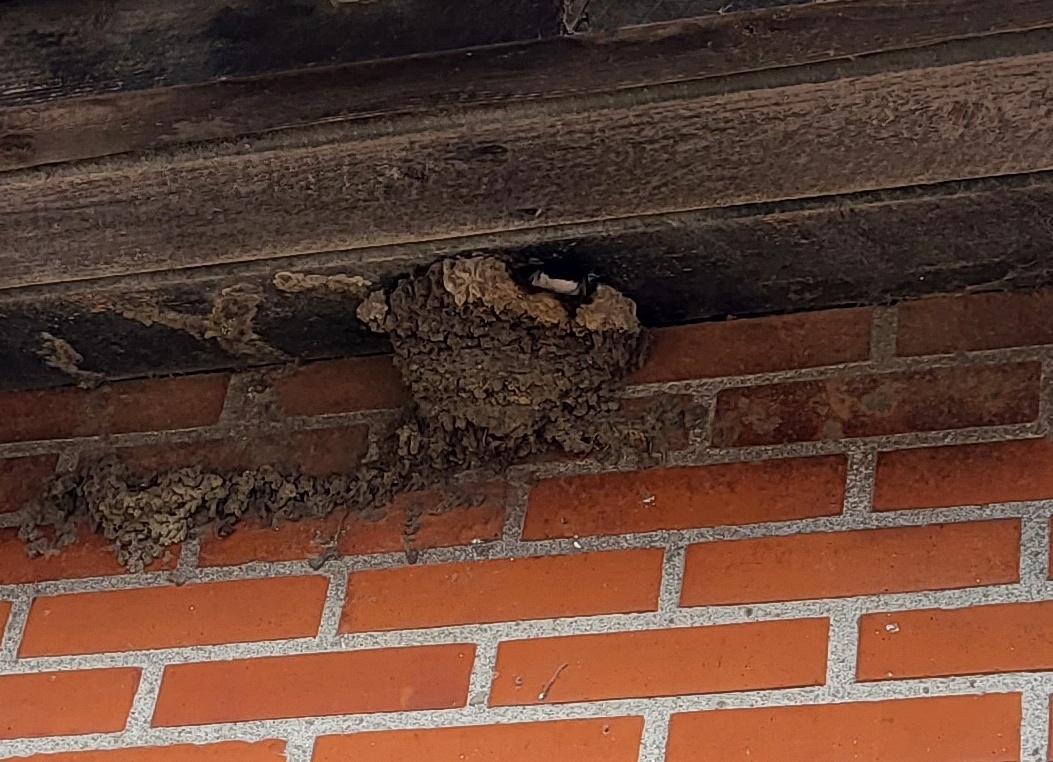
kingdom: Animalia
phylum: Chordata
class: Aves
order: Passeriformes
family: Hirundinidae
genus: Delichon
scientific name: Delichon urbicum
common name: Bysvale
